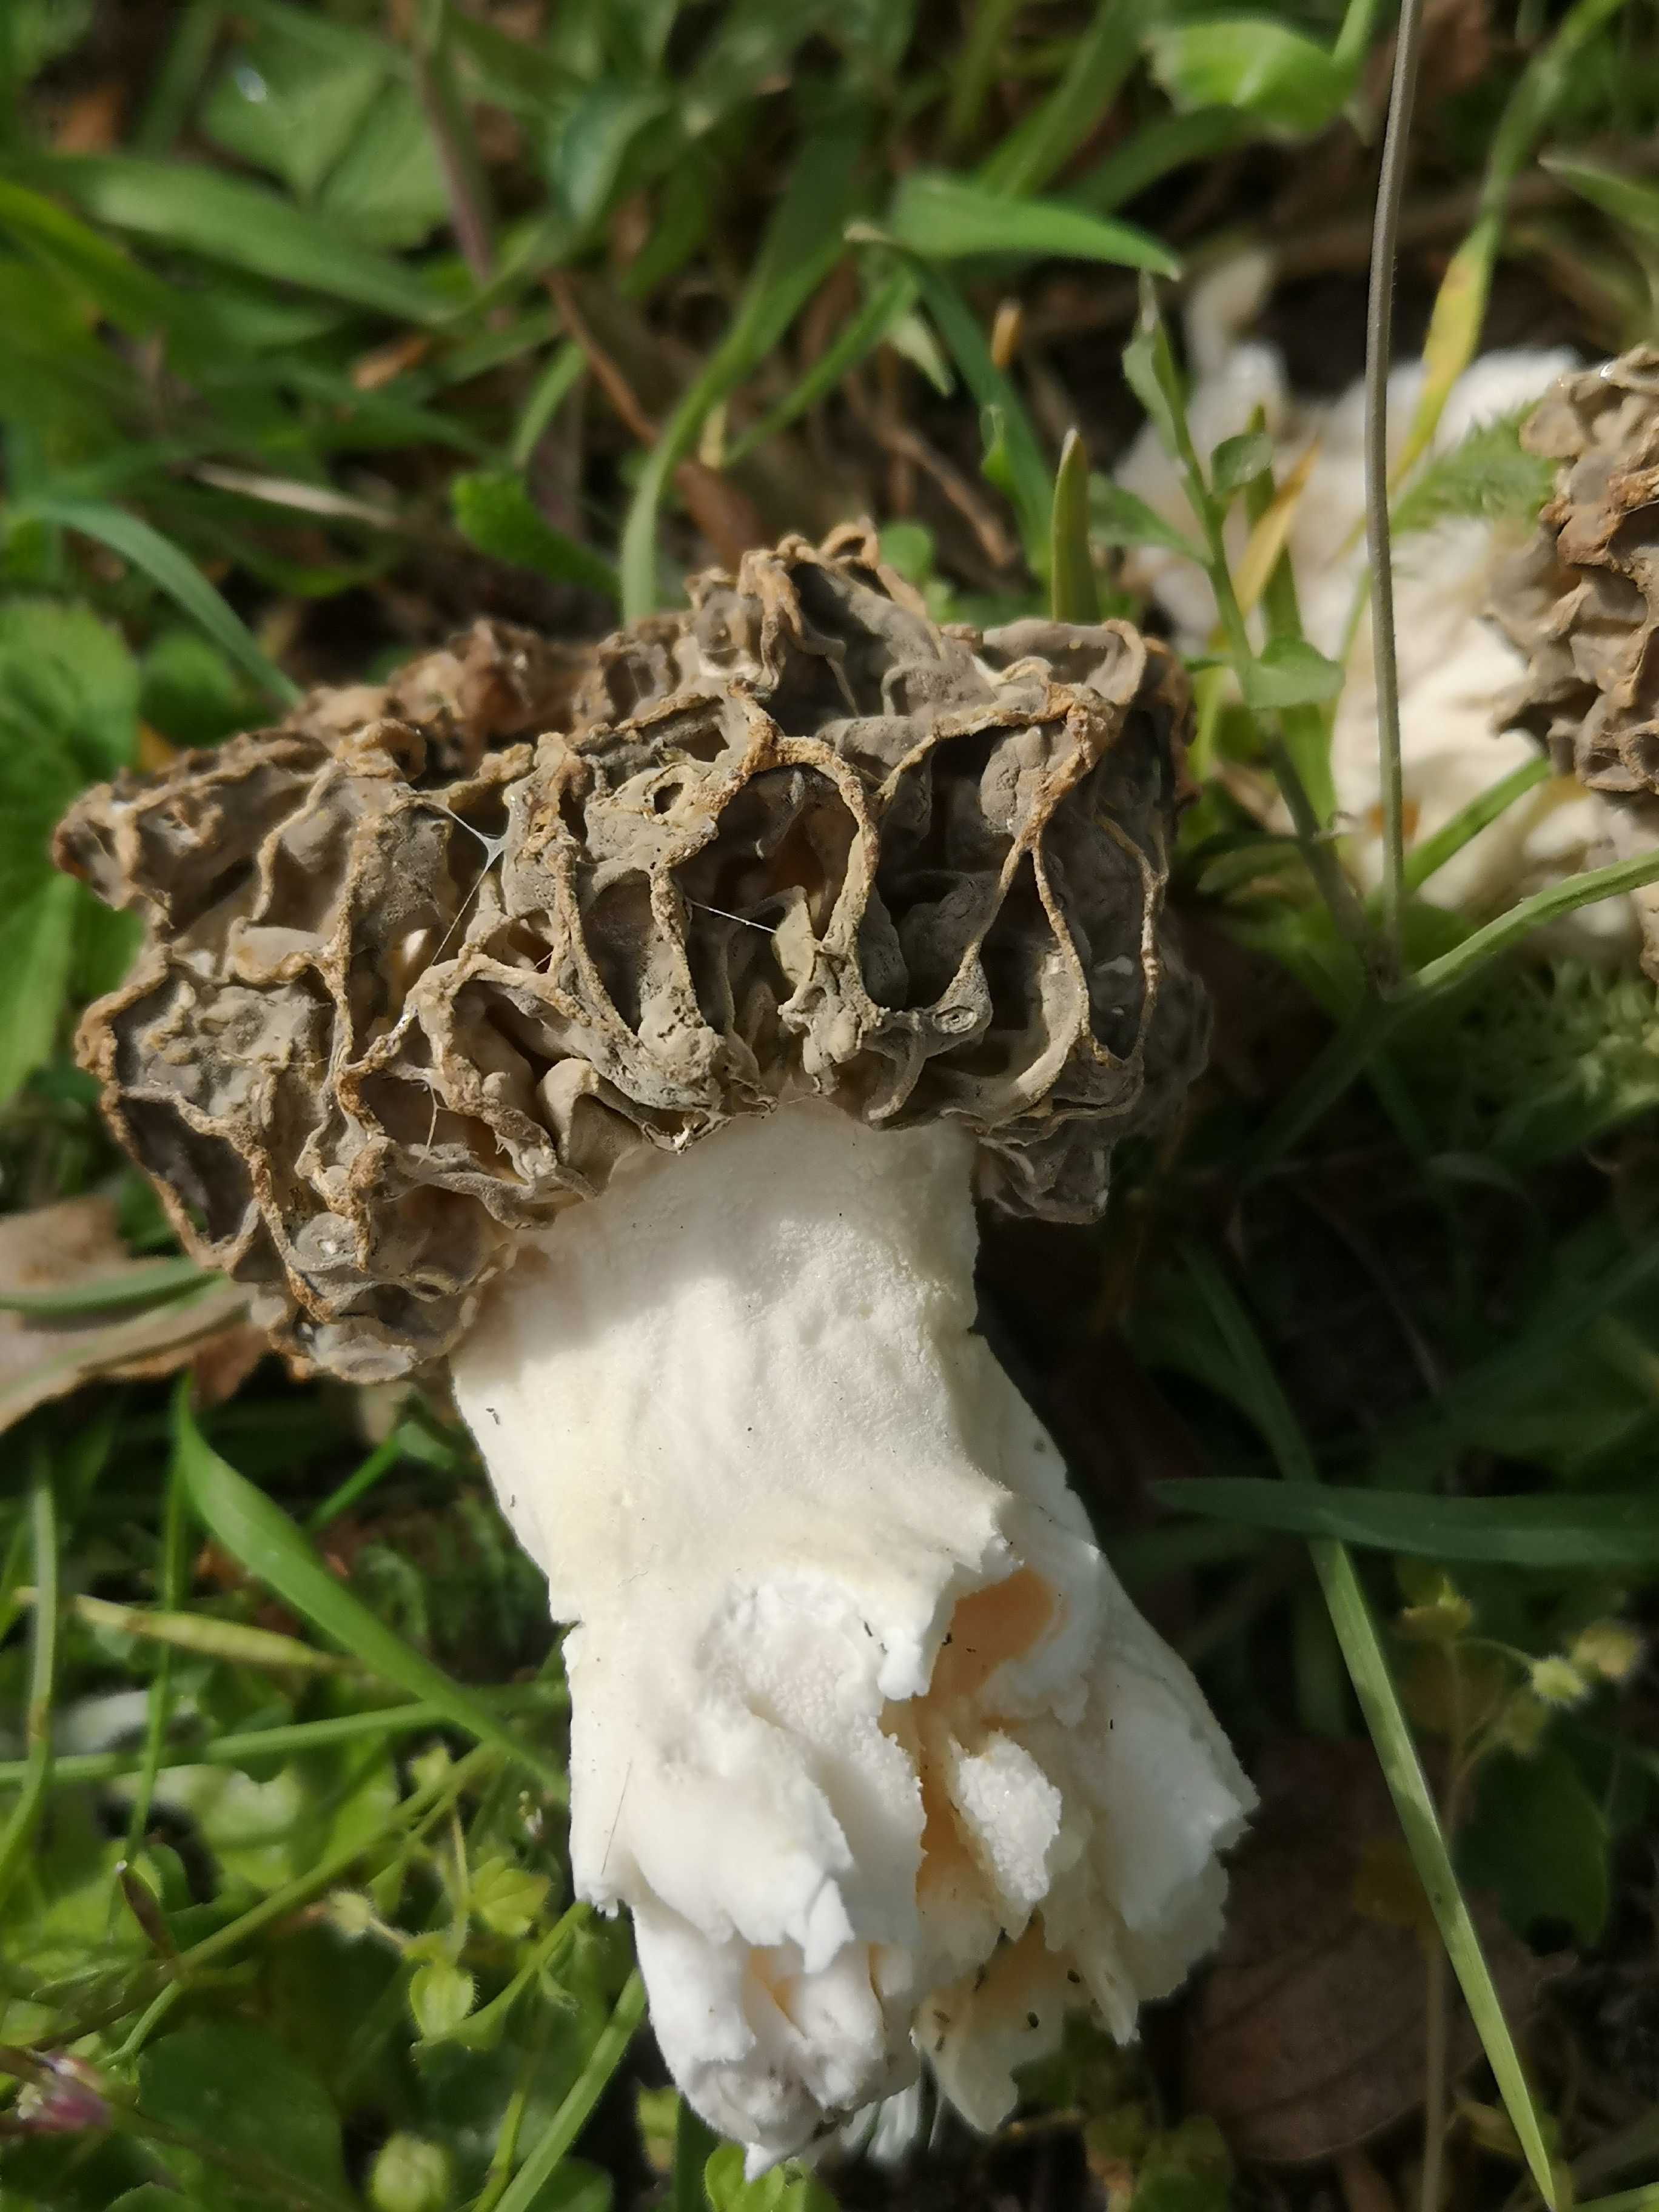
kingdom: Fungi
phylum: Ascomycota
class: Pezizomycetes
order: Pezizales
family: Morchellaceae
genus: Morchella
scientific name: Morchella esculenta
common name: almindelig morkel
